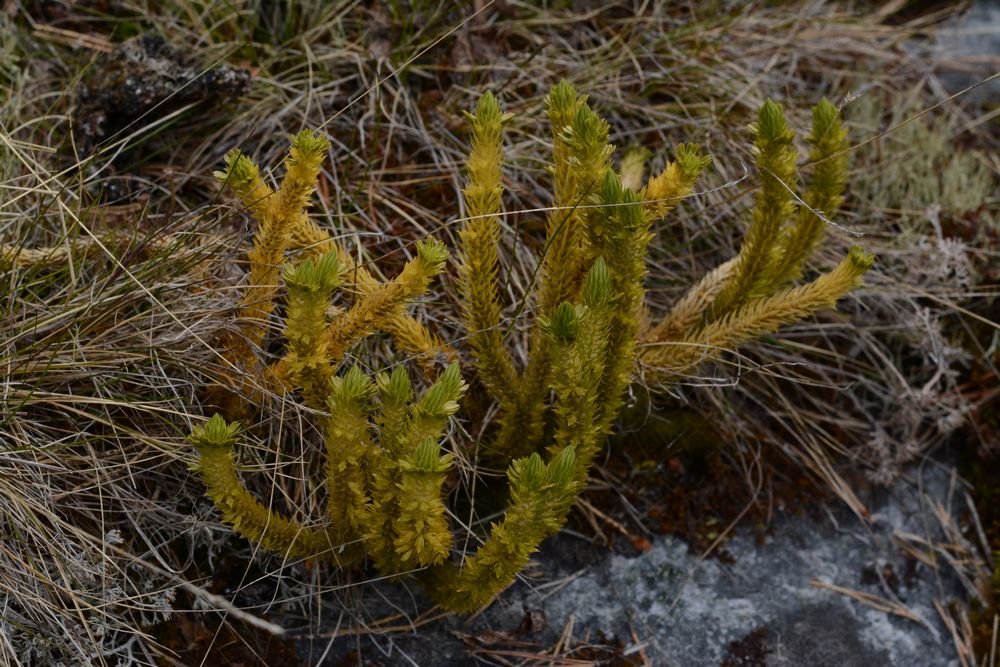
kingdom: Plantae
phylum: Tracheophyta
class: Lycopodiopsida
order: Lycopodiales
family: Lycopodiaceae
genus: Huperzia
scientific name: Huperzia selago
